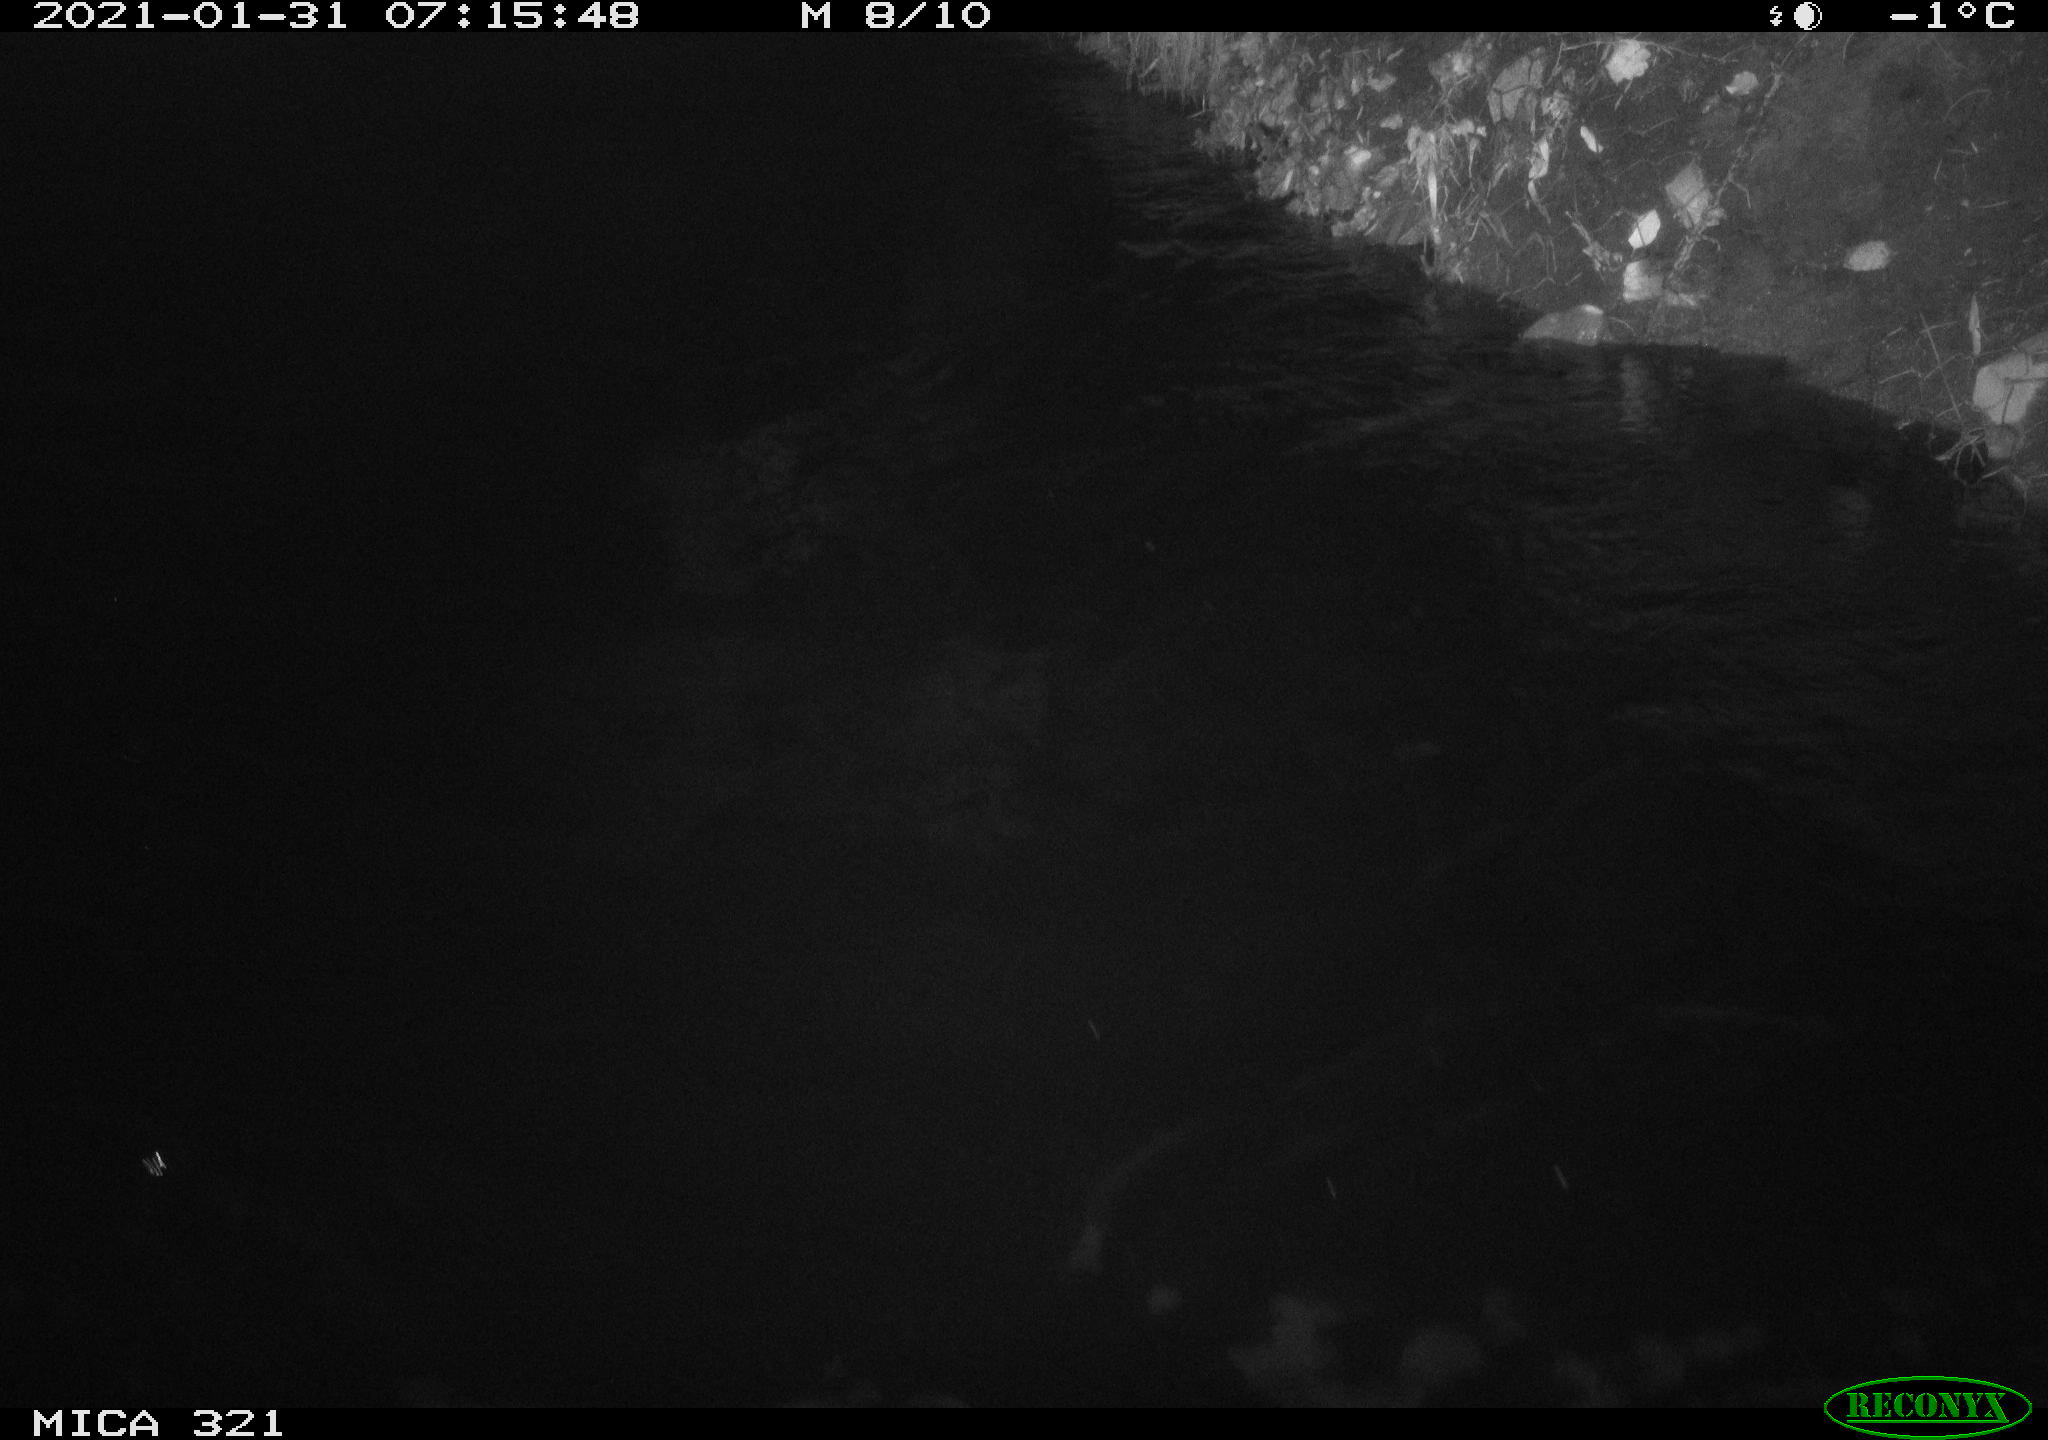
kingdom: Animalia
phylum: Chordata
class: Aves
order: Anseriformes
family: Anatidae
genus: Anas
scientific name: Anas platyrhynchos
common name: Mallard
